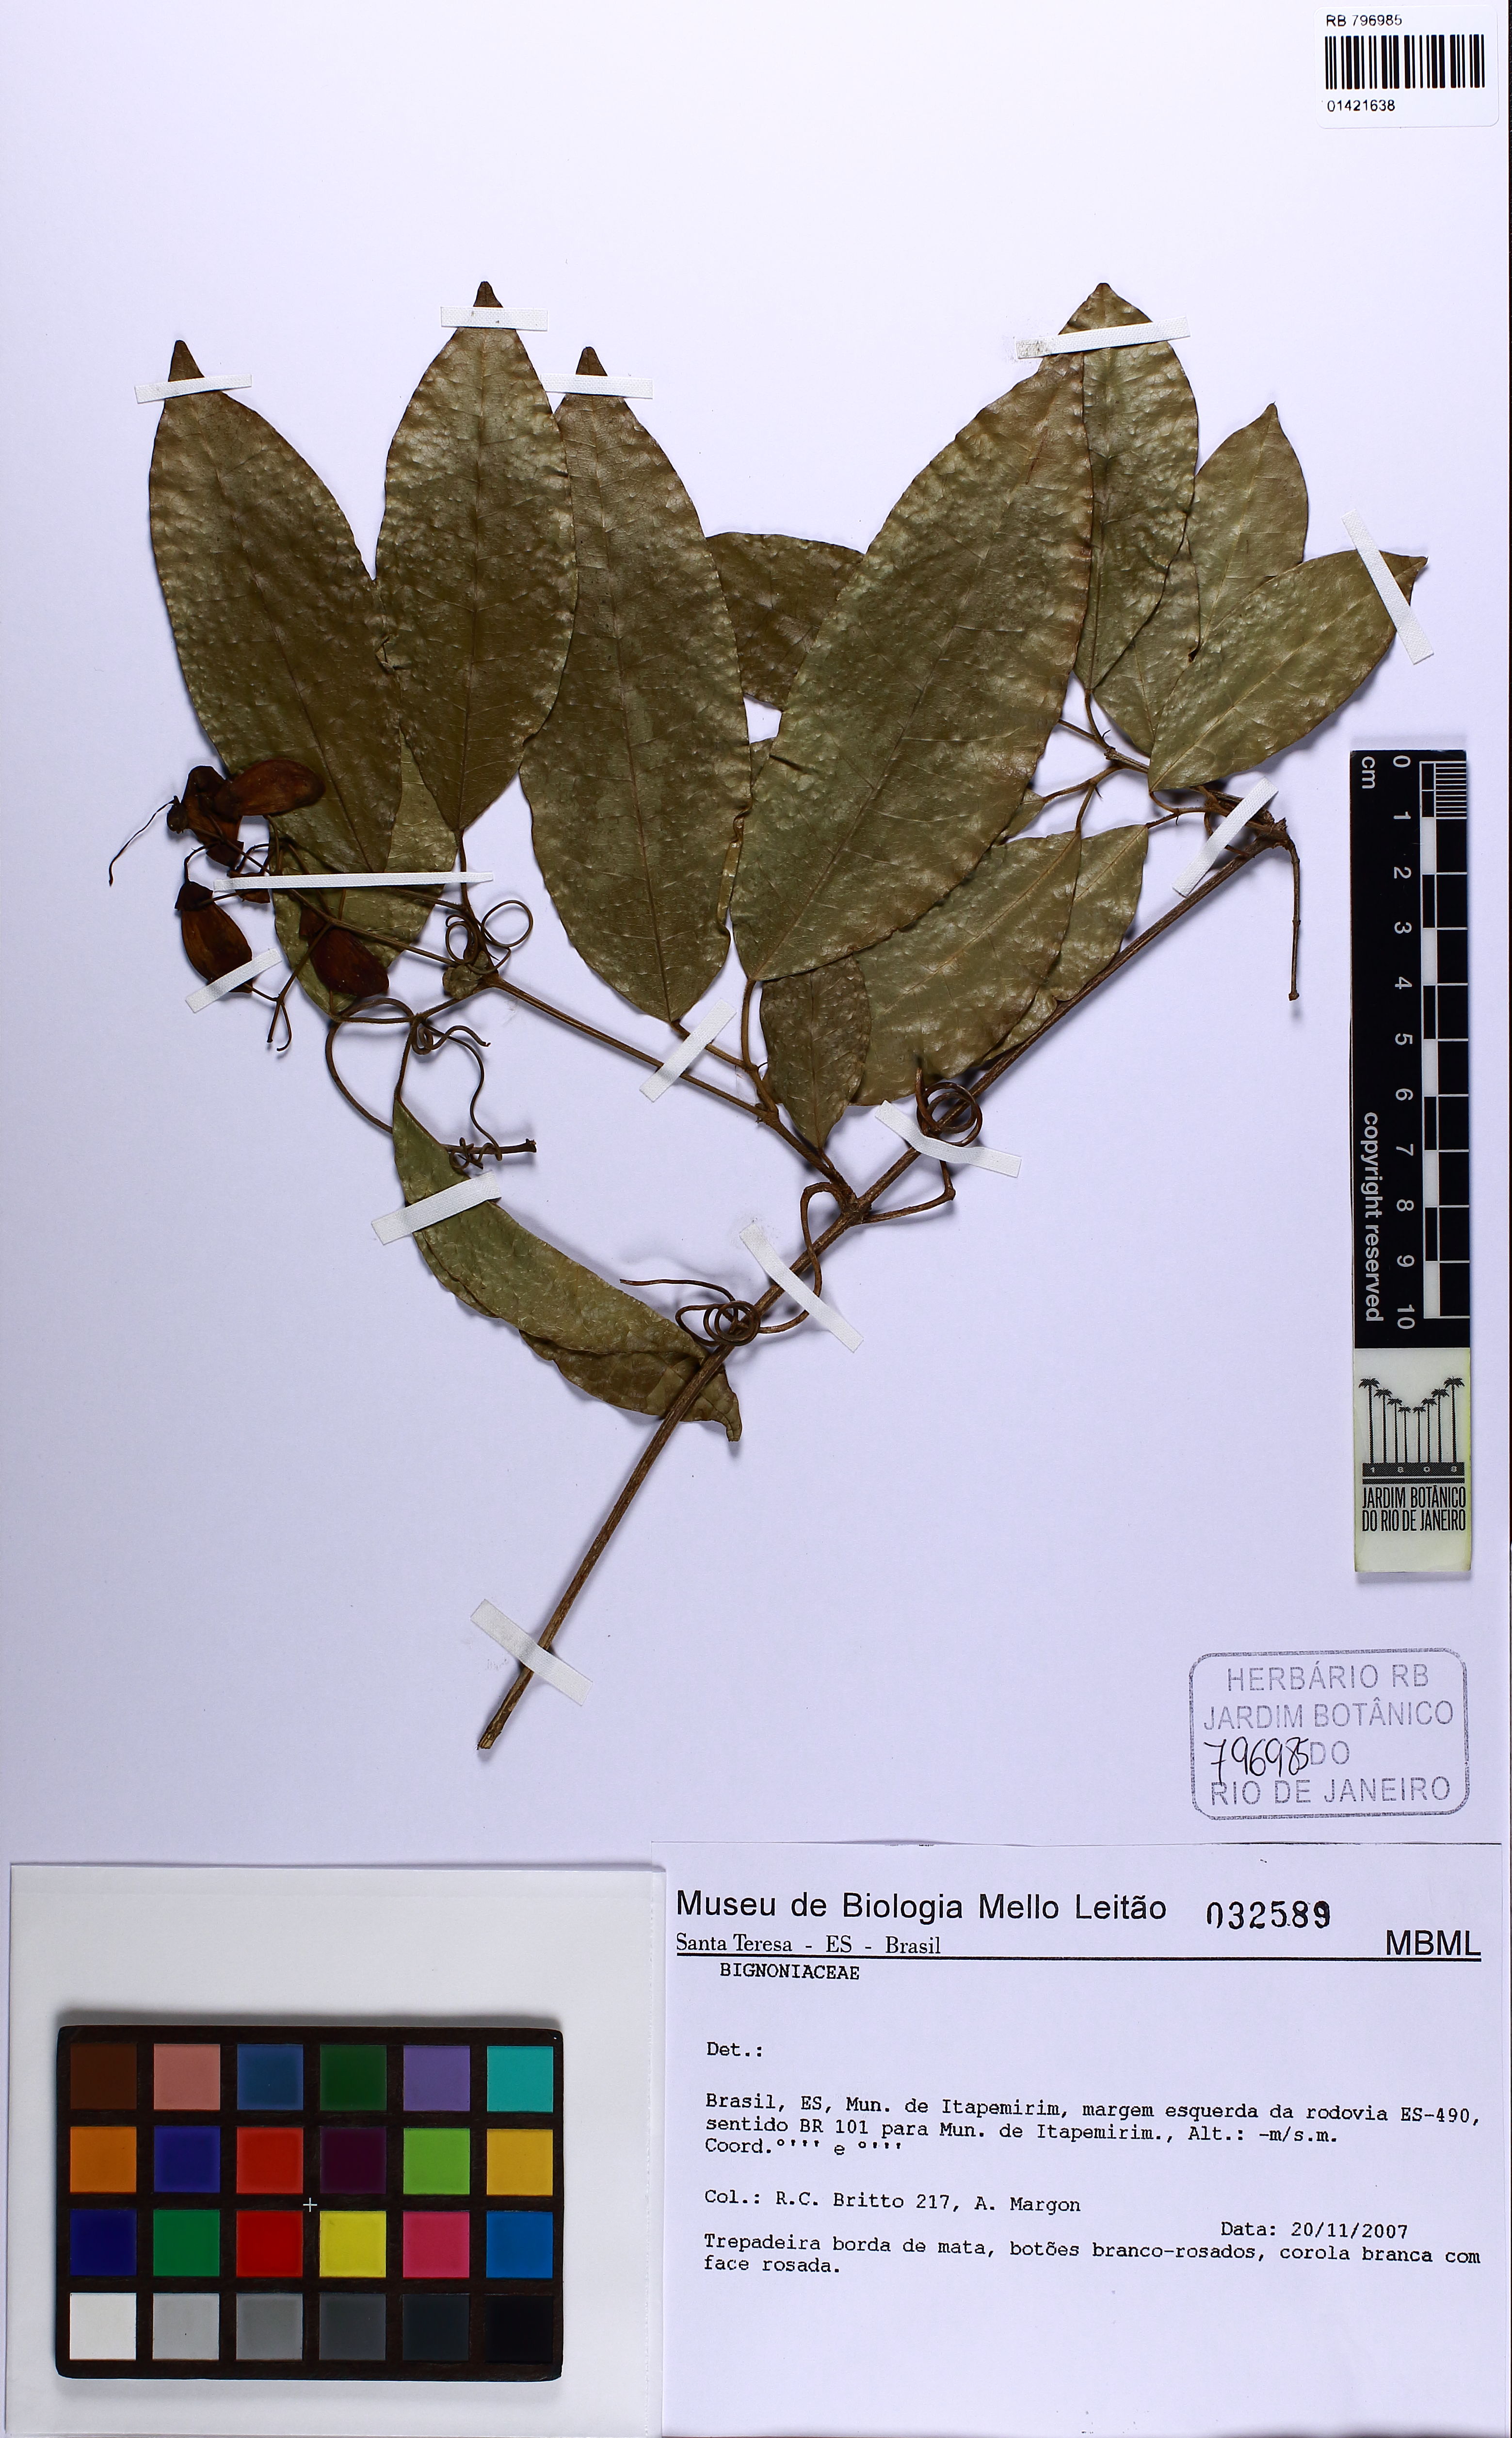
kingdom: Plantae
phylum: Tracheophyta
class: Magnoliopsida
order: Lamiales
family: Bignoniaceae
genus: Bignonia
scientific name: Bignonia campanulata
